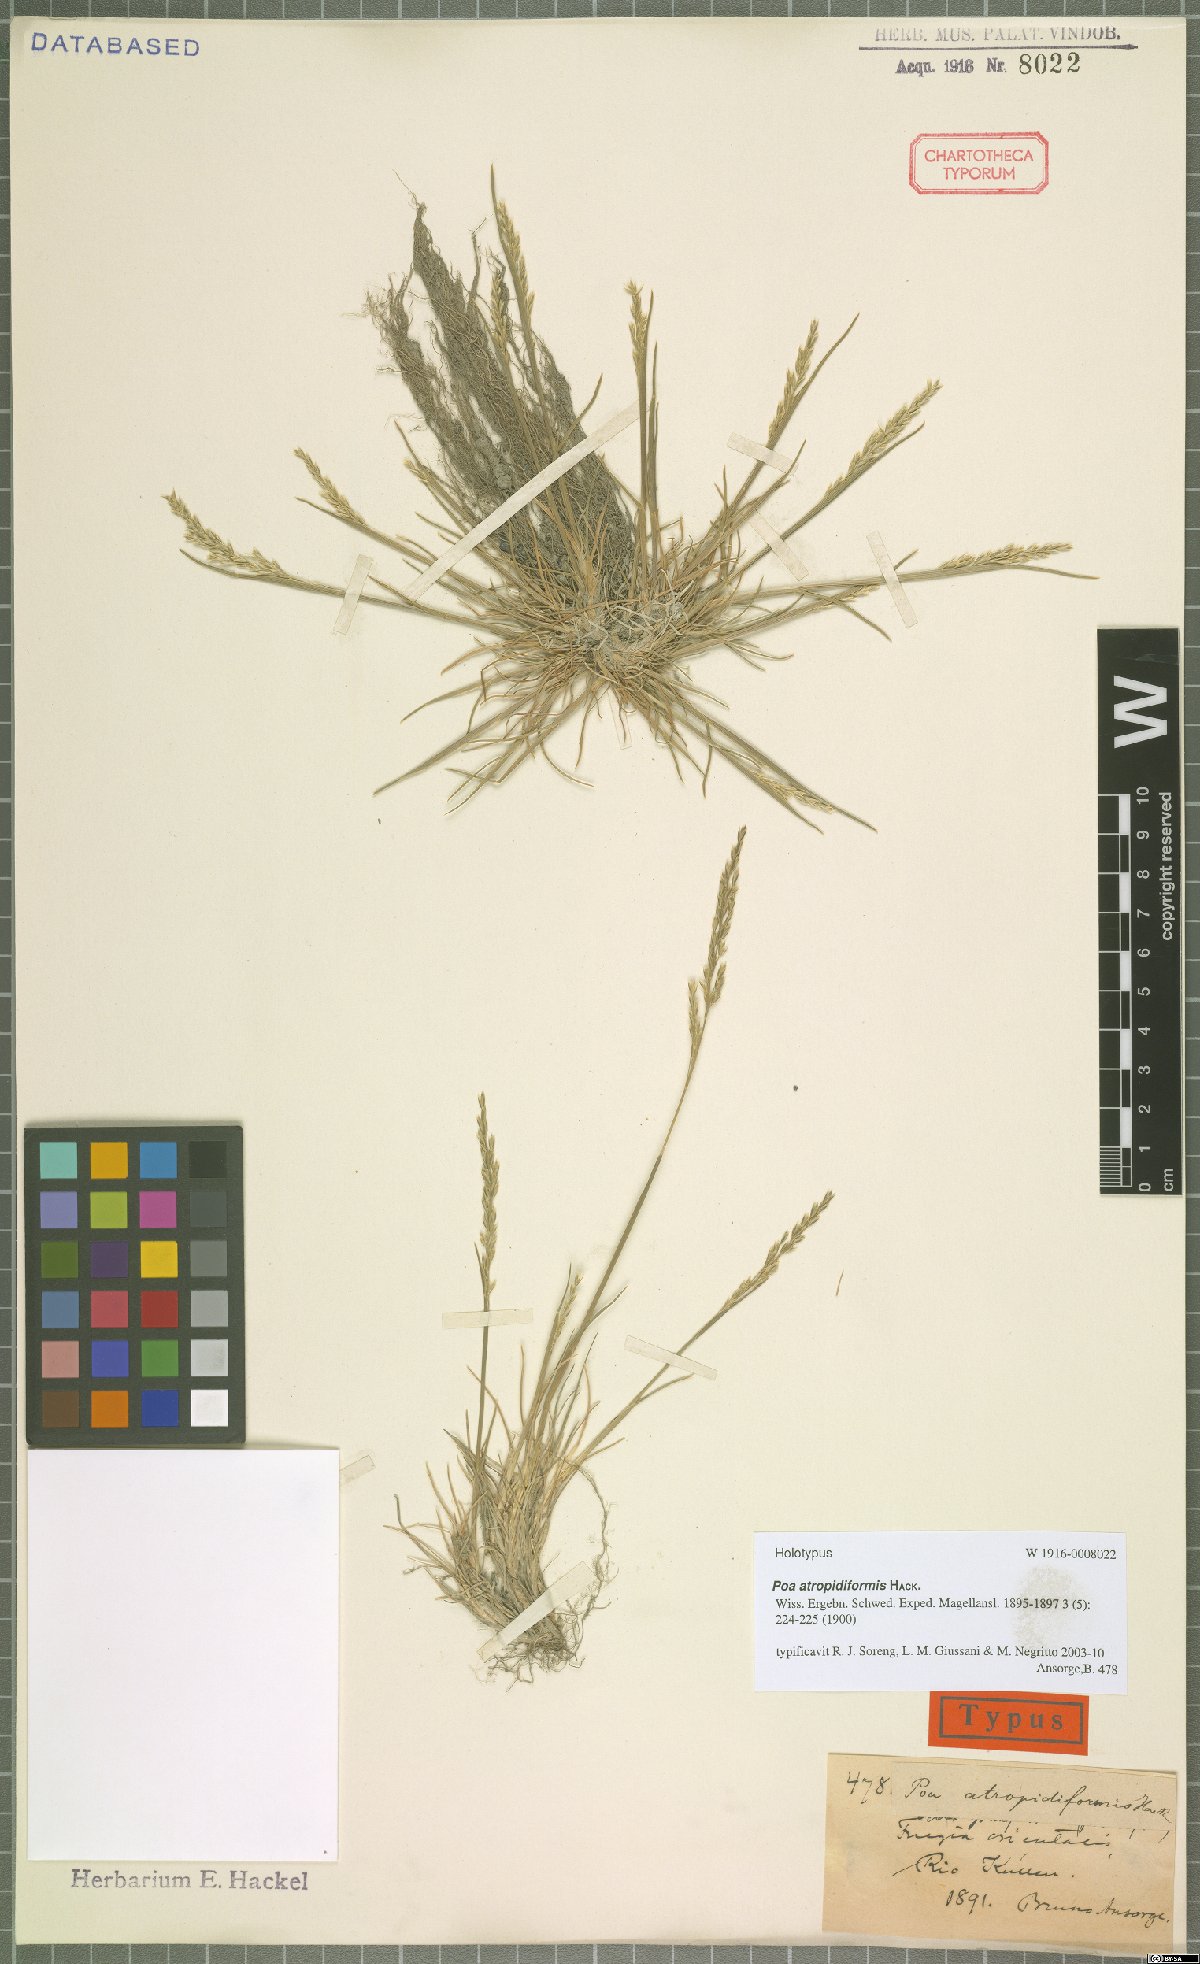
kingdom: Plantae
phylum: Tracheophyta
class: Liliopsida
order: Poales
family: Poaceae
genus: Poa
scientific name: Poa atropidiformis
